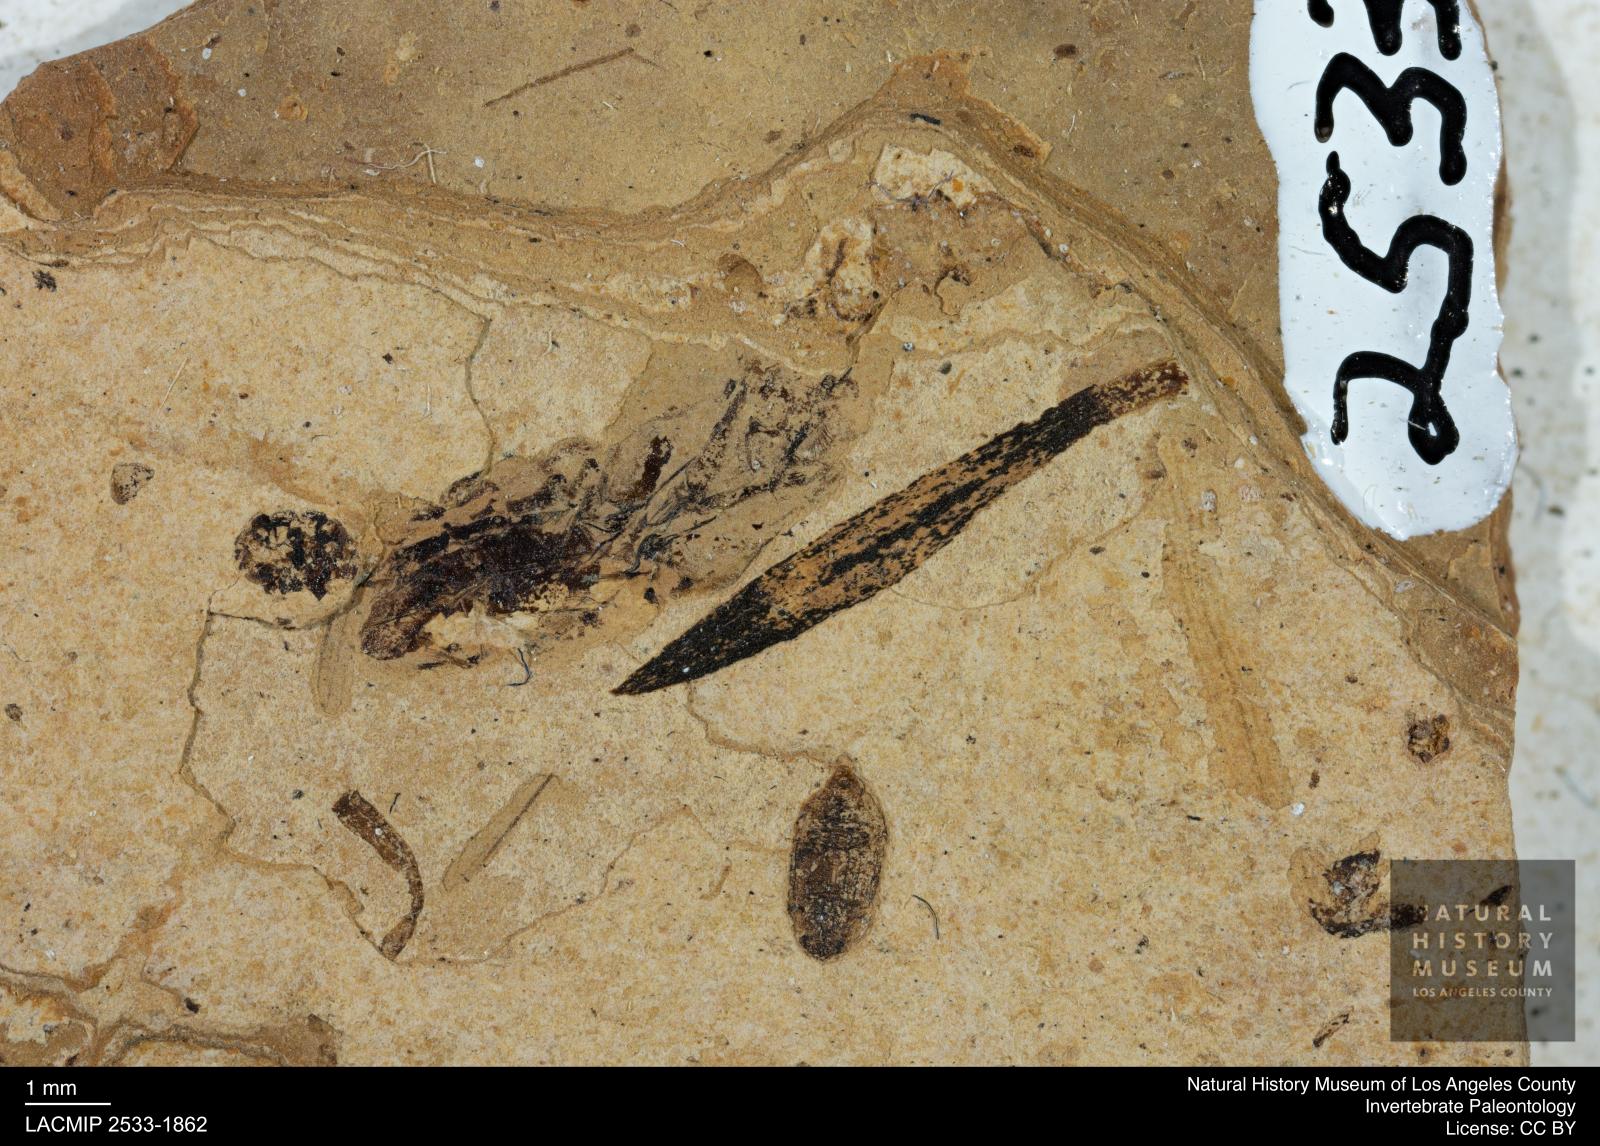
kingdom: Animalia
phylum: Arthropoda
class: Insecta
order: Hemiptera
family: Notonectidae
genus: Notonecta
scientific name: Notonecta
